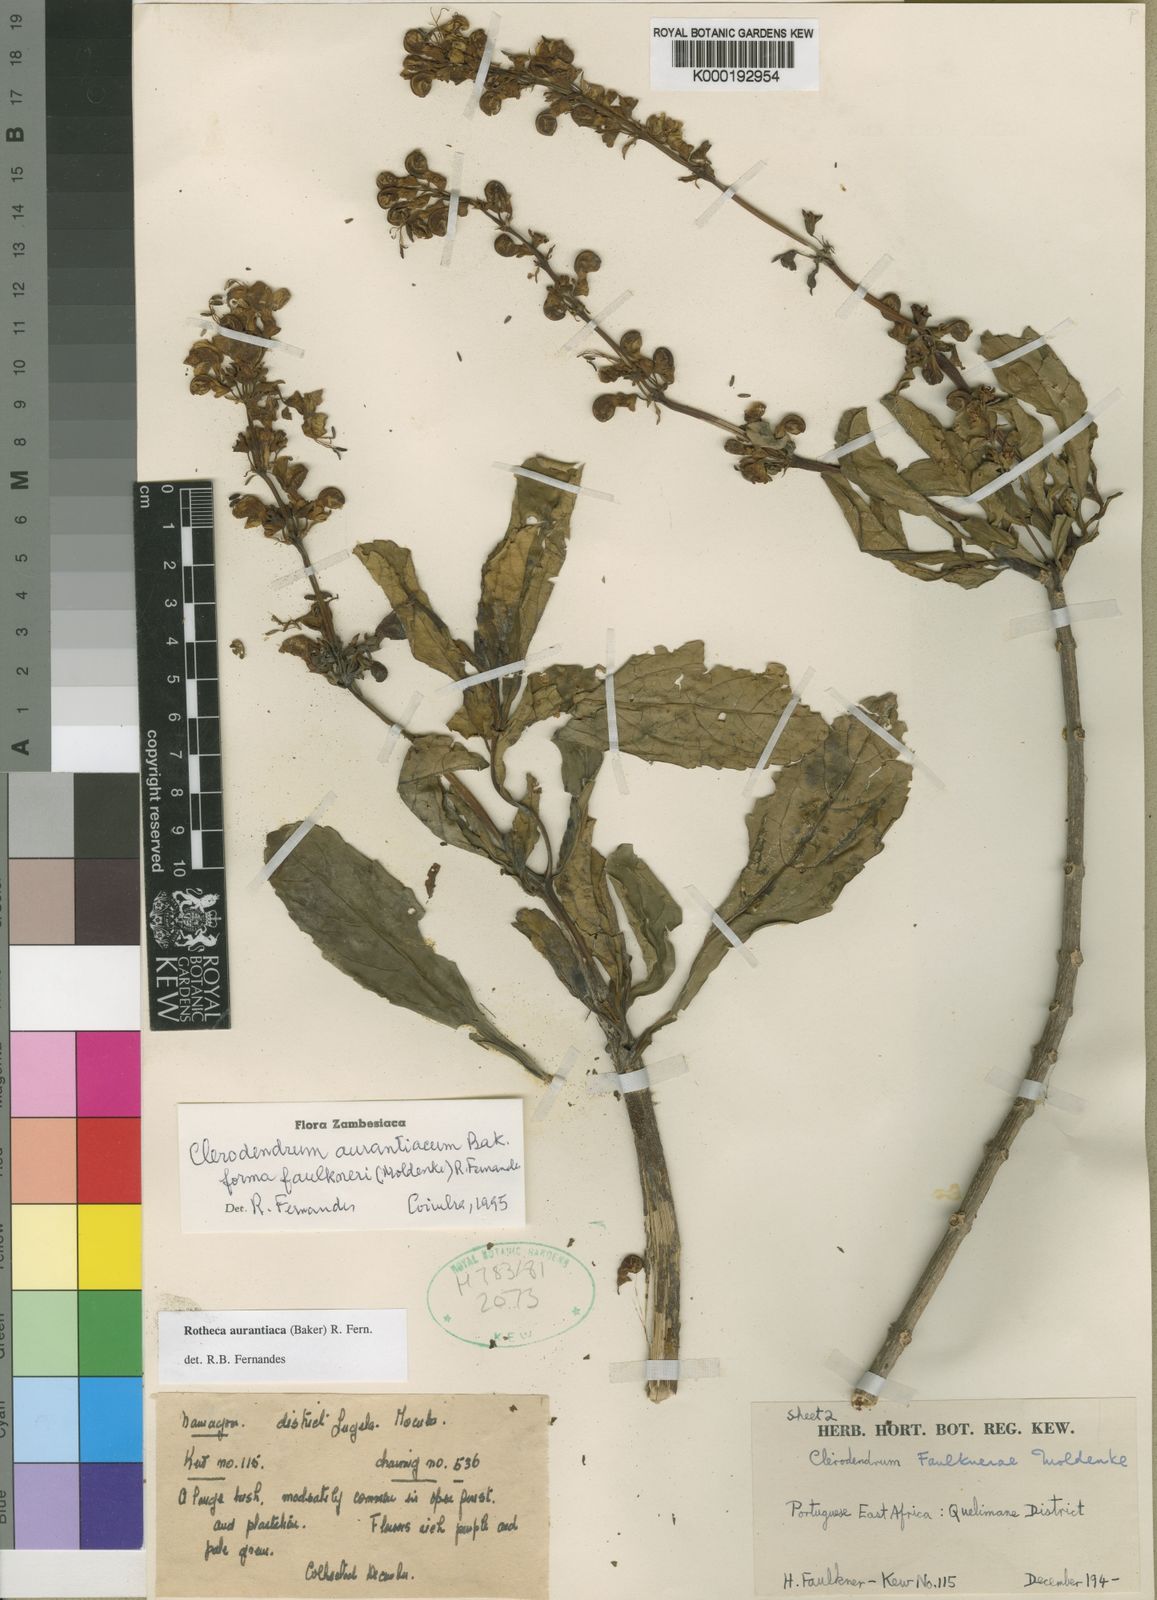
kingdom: Plantae
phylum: Tracheophyta
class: Magnoliopsida
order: Lamiales
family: Lamiaceae
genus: Rotheca
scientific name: Rotheca aurantiaca
